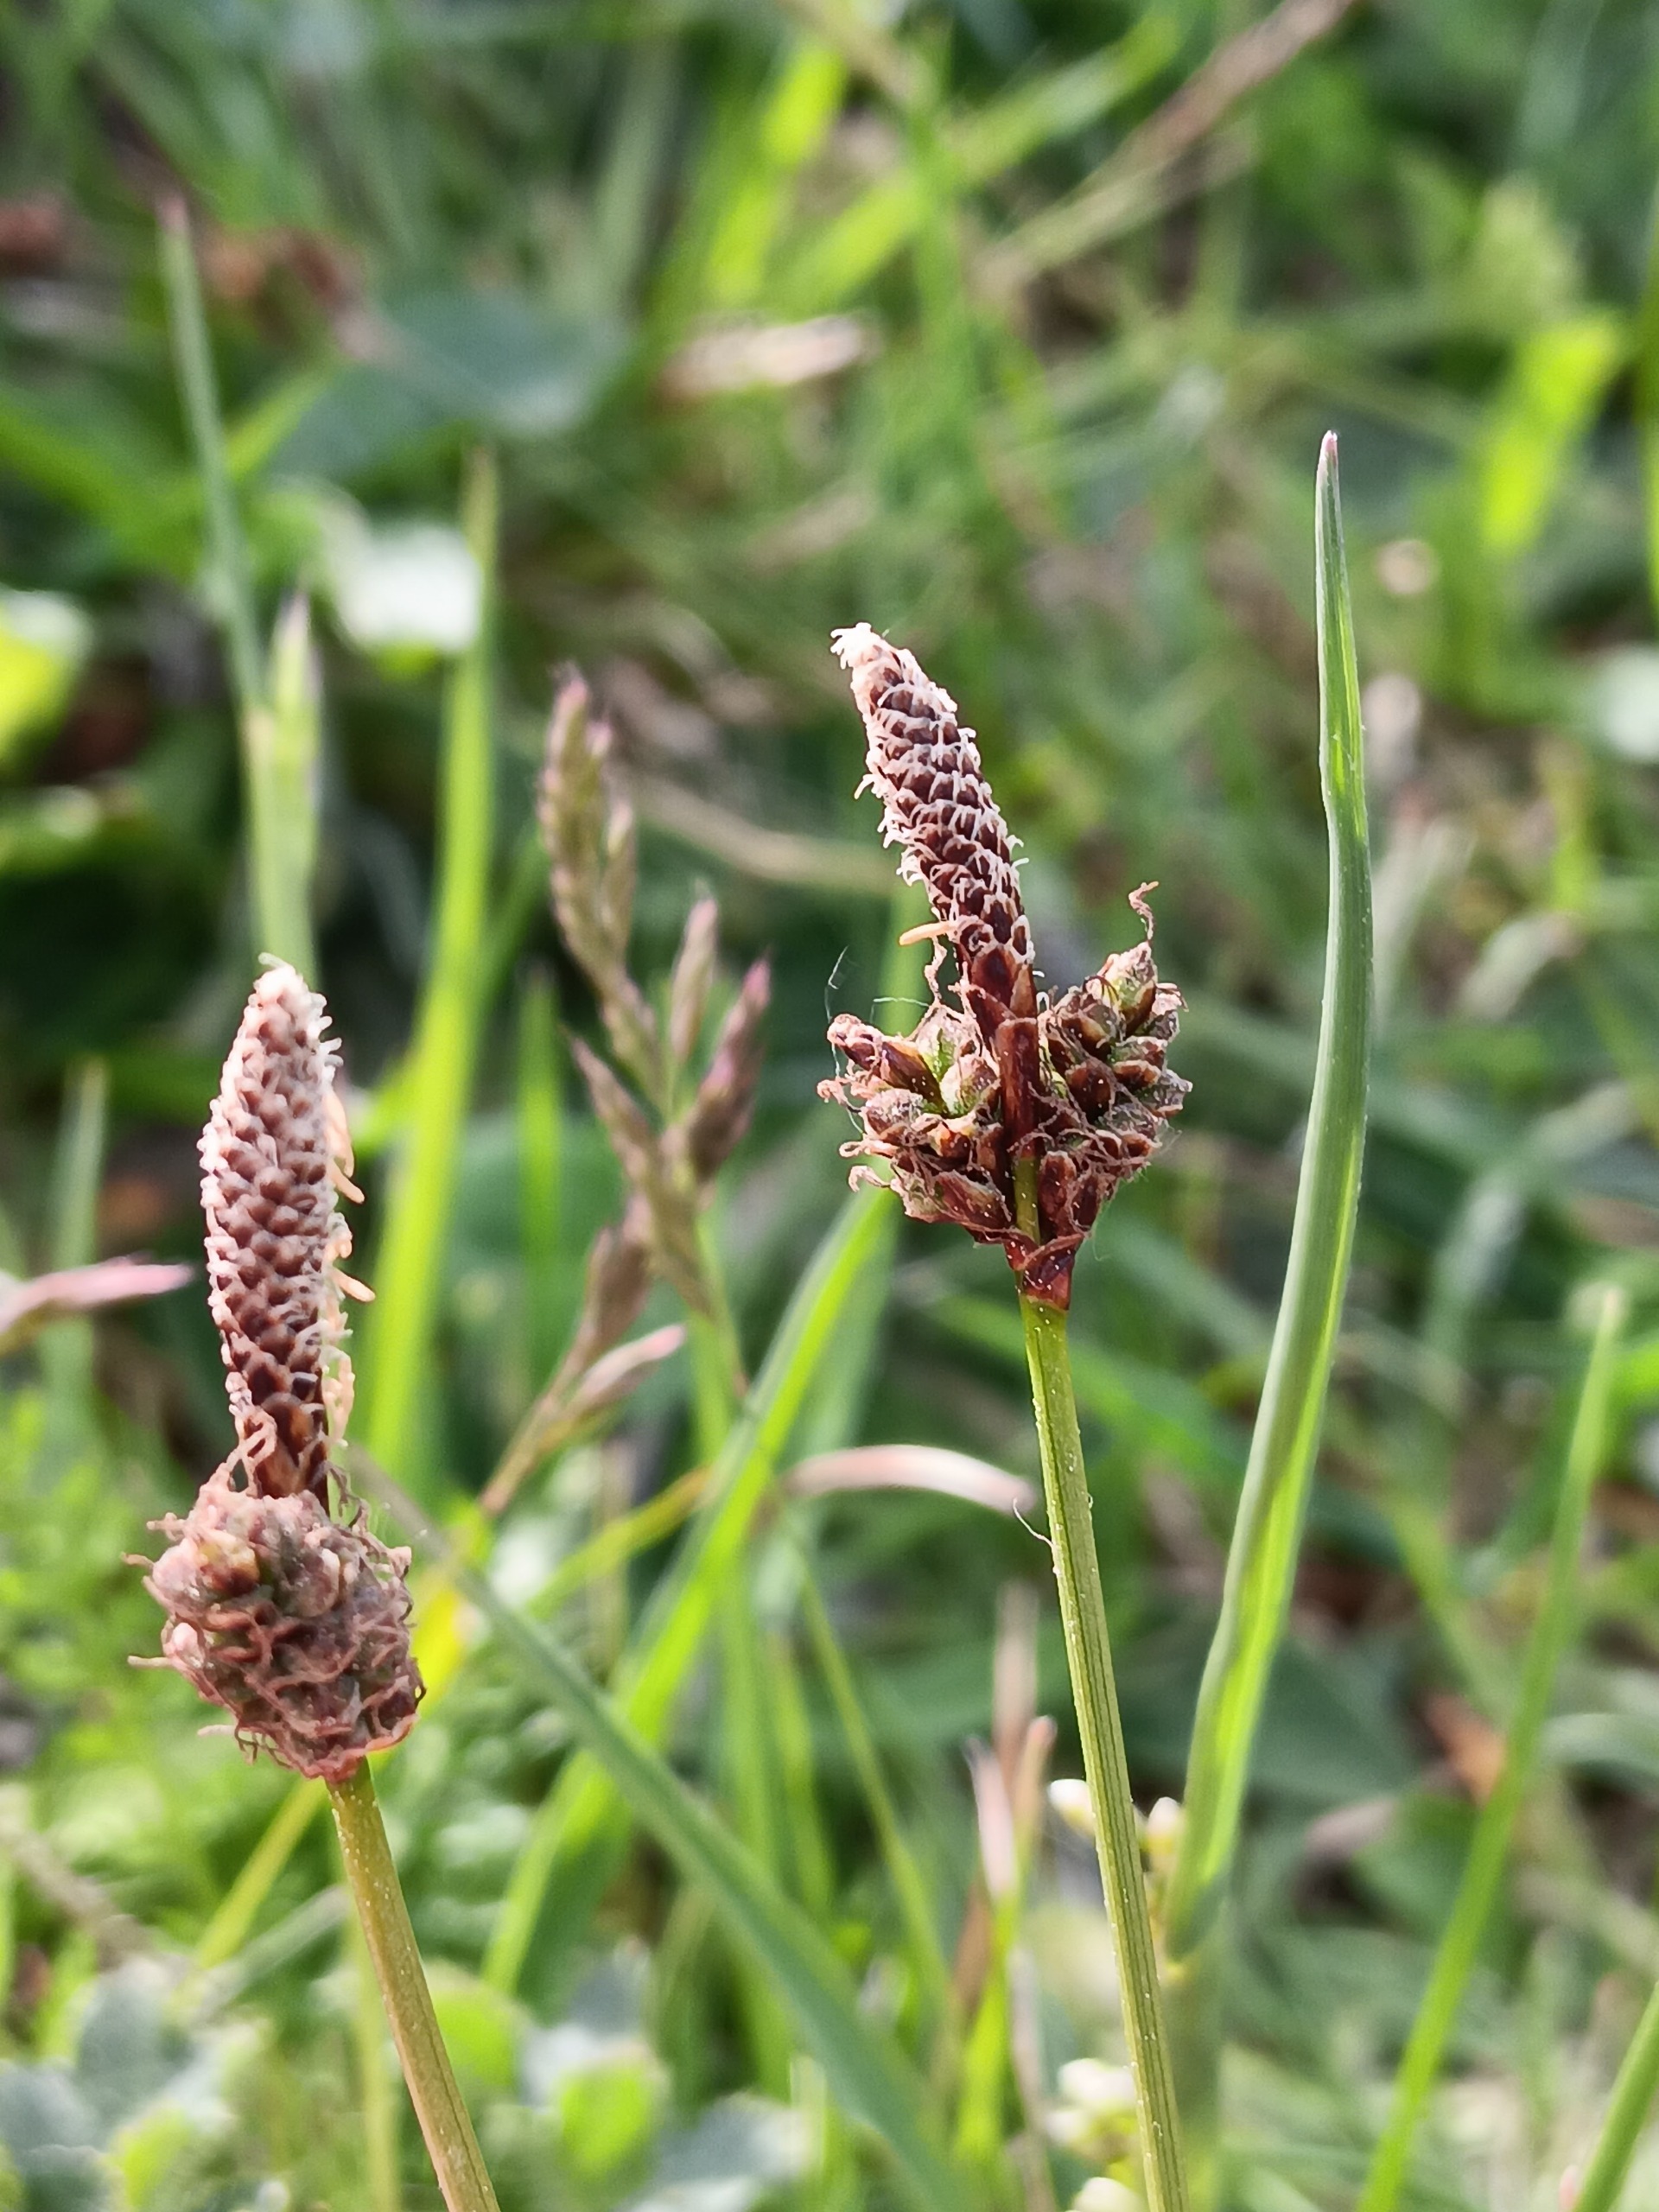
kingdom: Plantae
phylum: Tracheophyta
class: Liliopsida
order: Poales
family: Cyperaceae
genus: Carex
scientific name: Carex ericetorum
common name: Lyng-star
